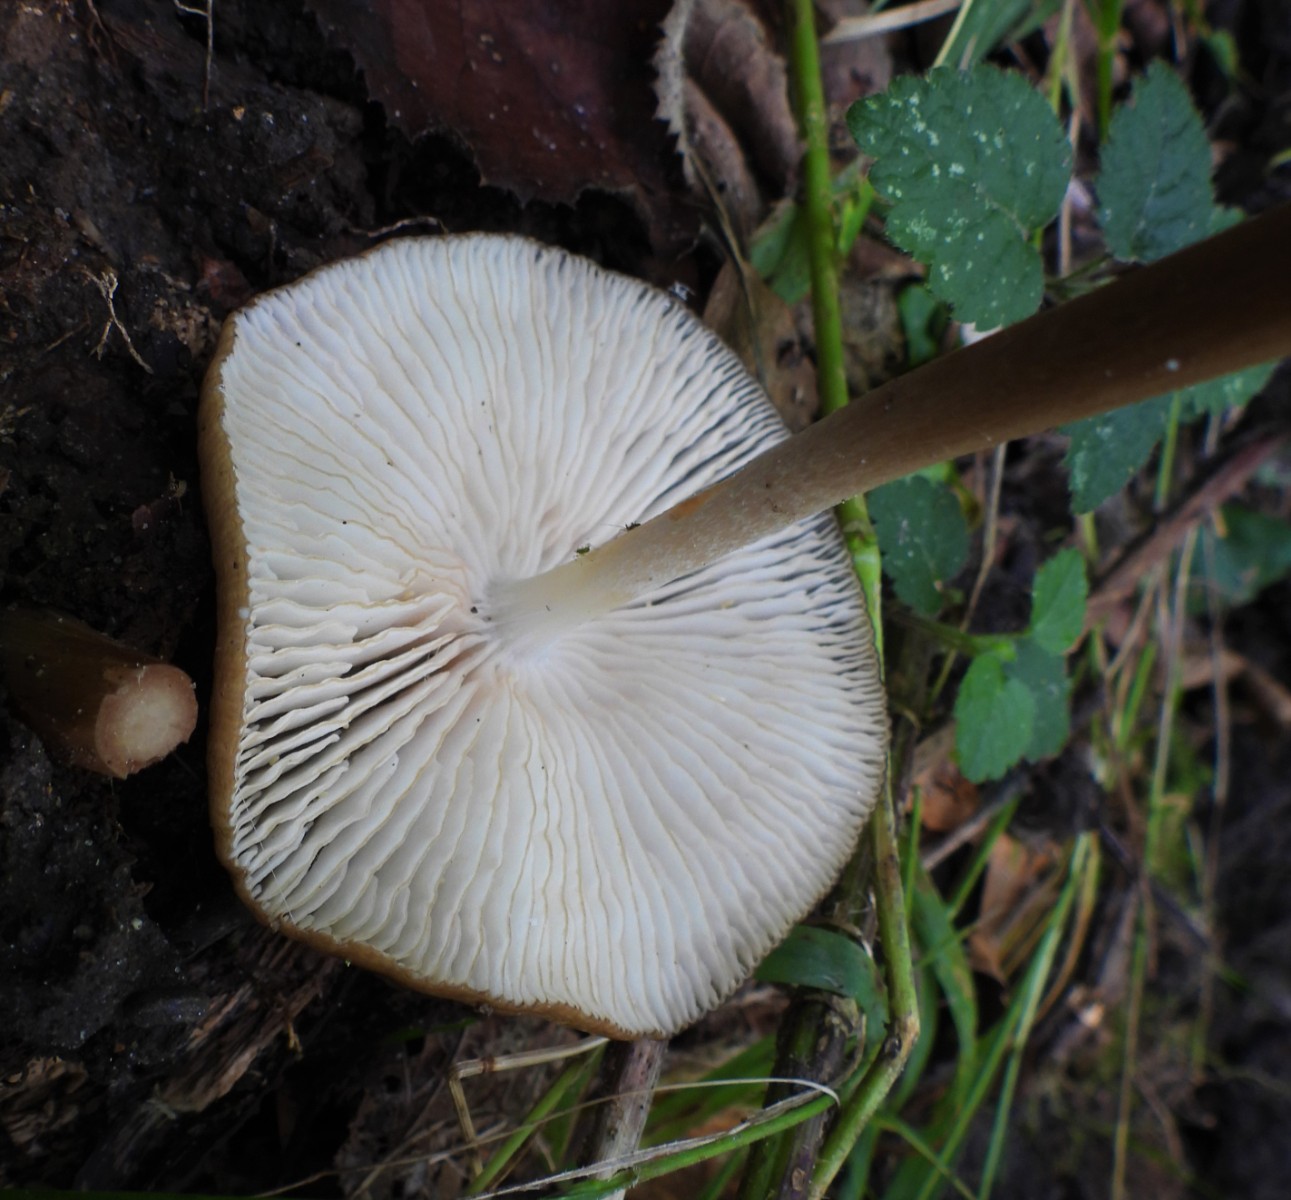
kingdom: Fungi
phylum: Basidiomycota
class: Agaricomycetes
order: Agaricales
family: Physalacriaceae
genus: Hymenopellis
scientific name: Hymenopellis radicata
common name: almindelig pælerodshat
